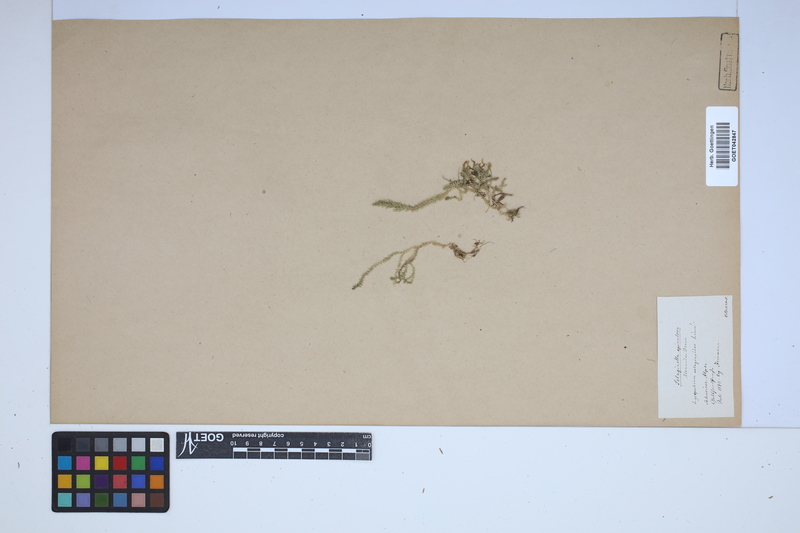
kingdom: Plantae
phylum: Tracheophyta
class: Lycopodiopsida
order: Selaginellales
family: Selaginellaceae
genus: Selaginella
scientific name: Selaginella selaginoides
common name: Prickly mountain-moss
